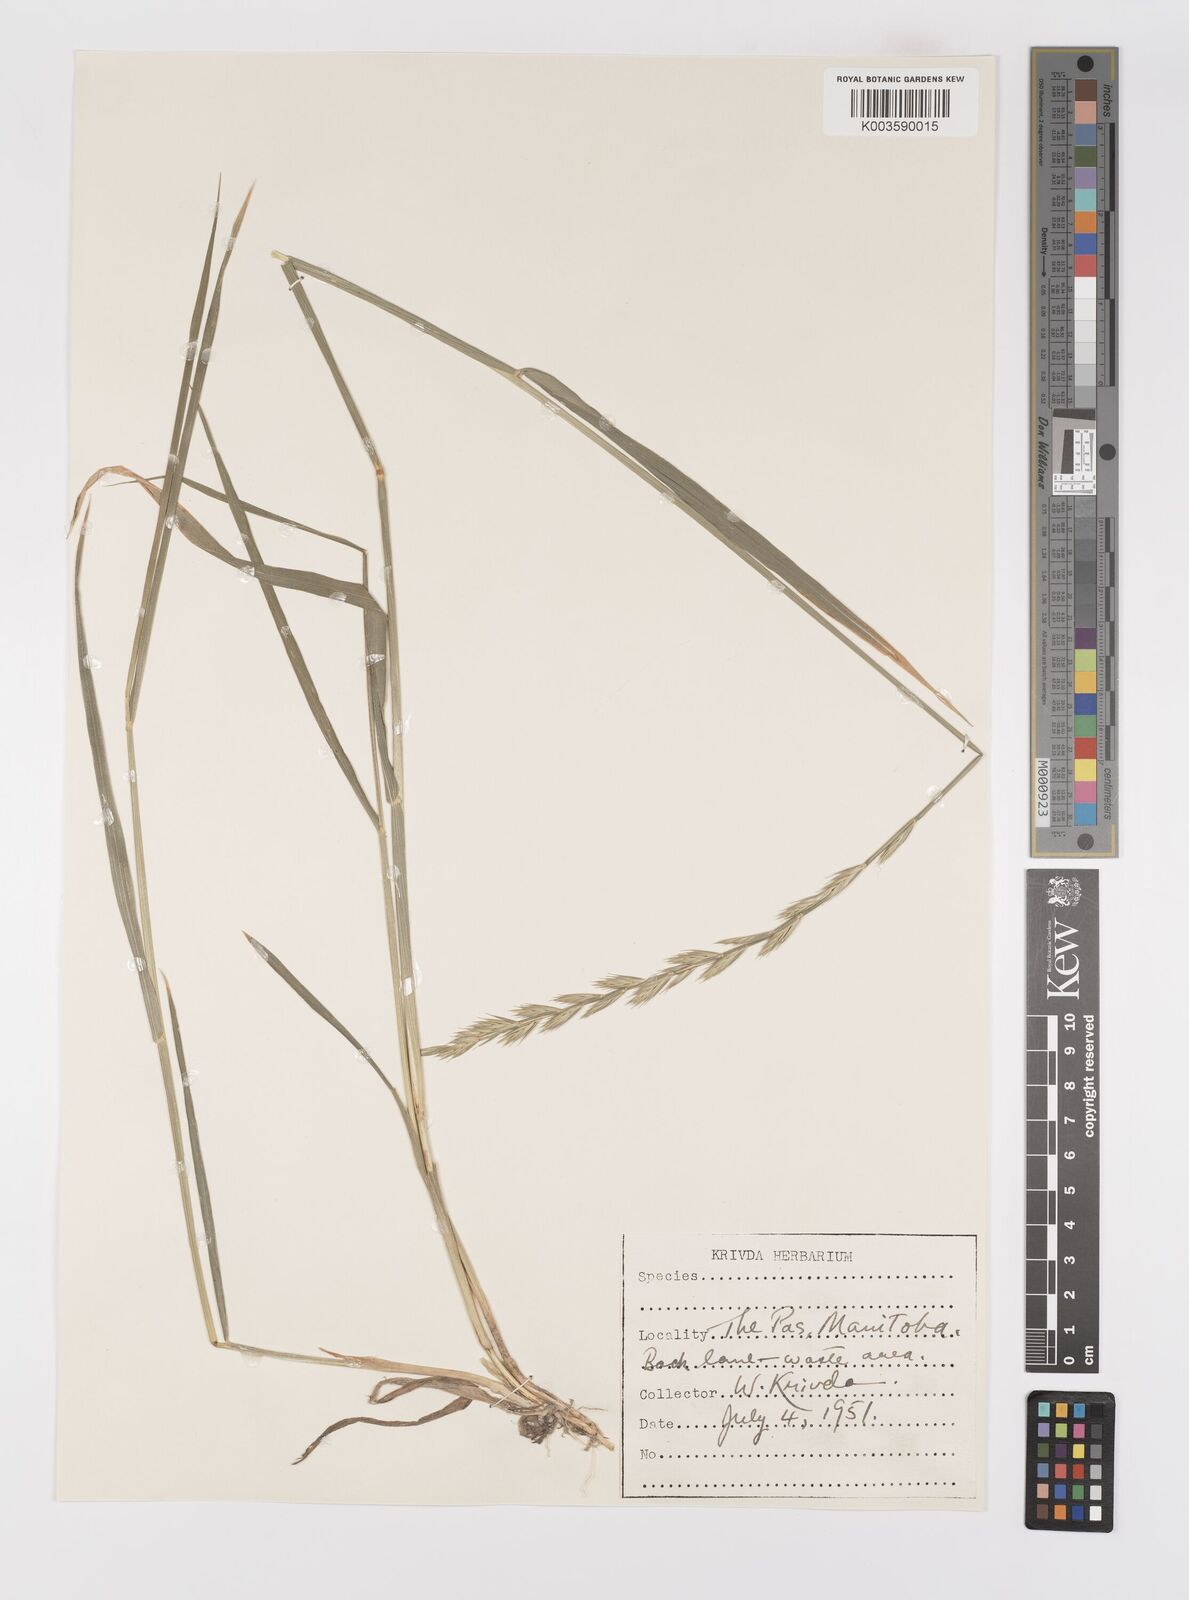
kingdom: Plantae
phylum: Tracheophyta
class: Liliopsida
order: Poales
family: Poaceae
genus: Elymus
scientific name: Elymus repens
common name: Quackgrass
